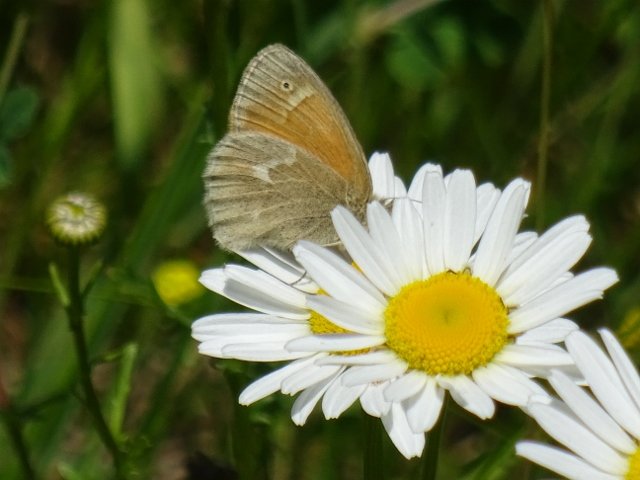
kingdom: Animalia
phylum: Arthropoda
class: Insecta
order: Lepidoptera
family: Nymphalidae
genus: Coenonympha
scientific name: Coenonympha tullia
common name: Large Heath
